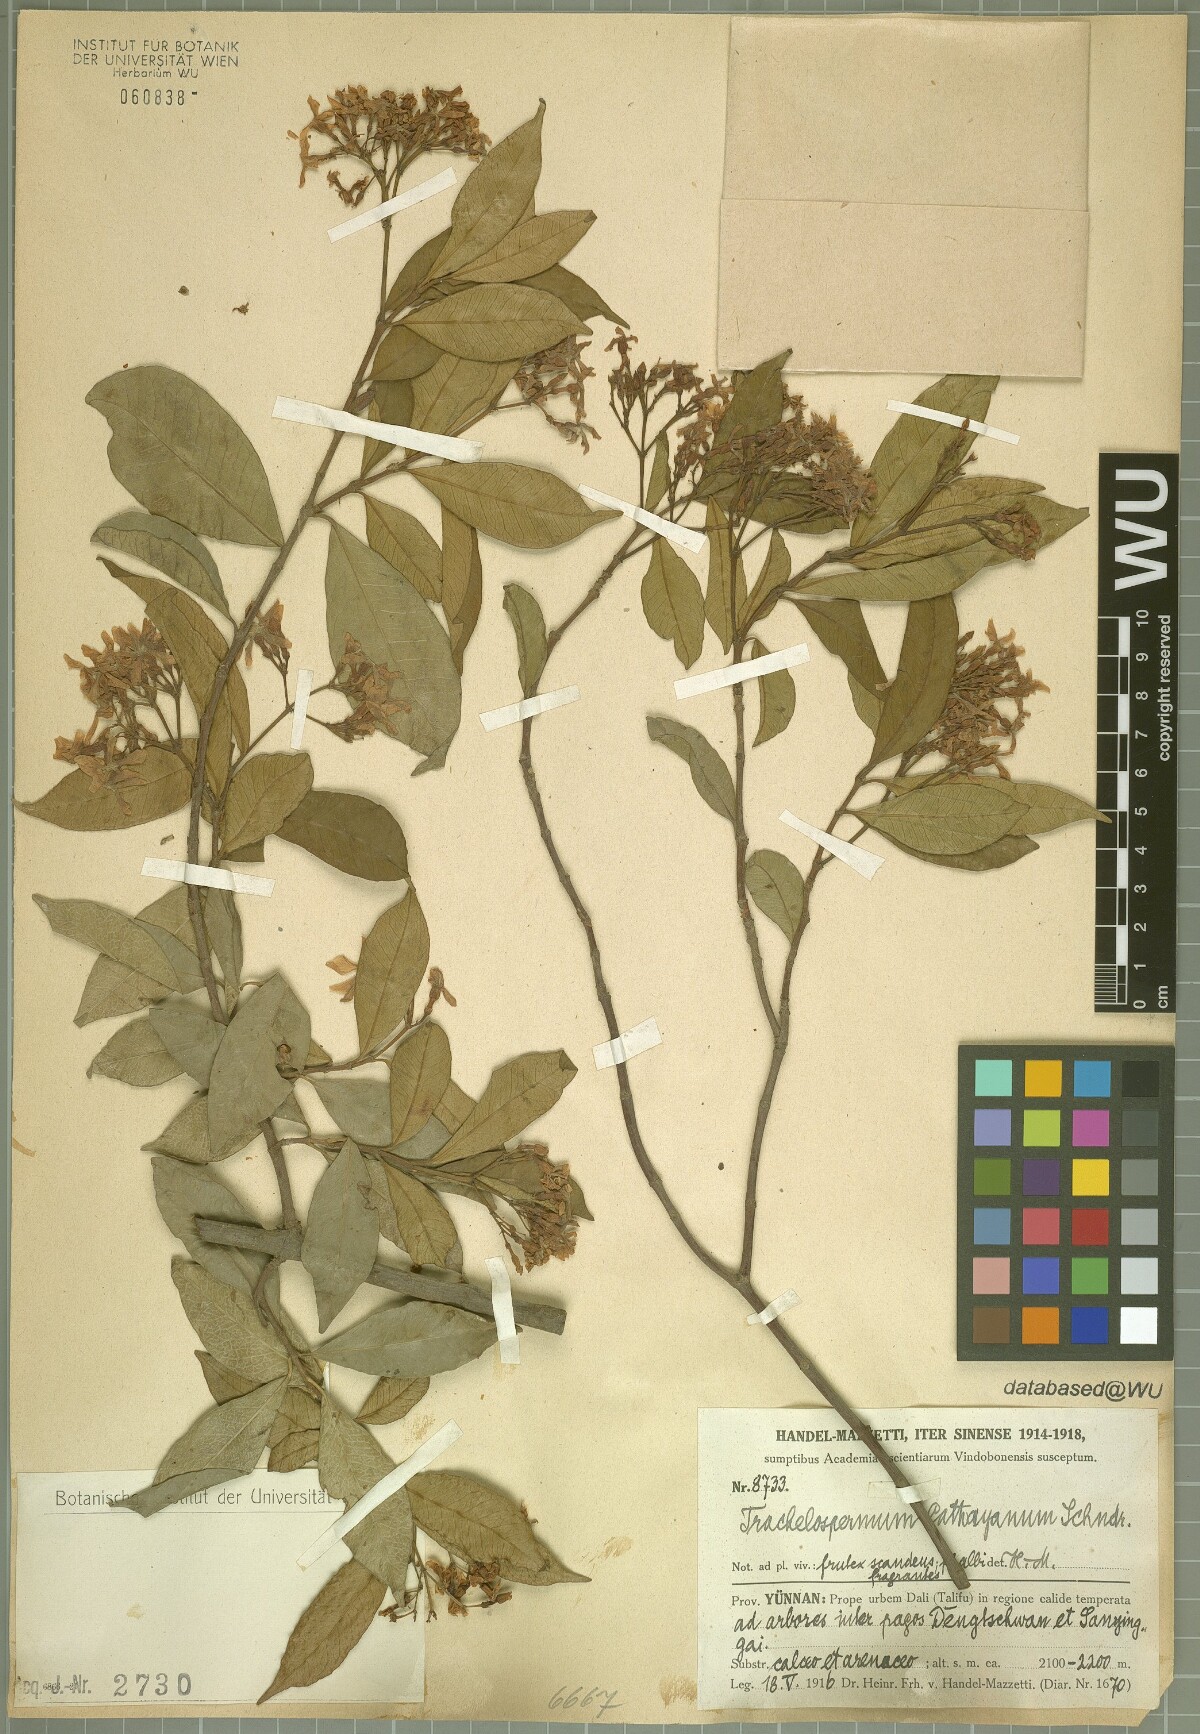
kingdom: Plantae
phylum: Tracheophyta
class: Magnoliopsida
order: Gentianales
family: Apocynaceae
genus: Trachelospermum
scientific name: Trachelospermum bodinieri
